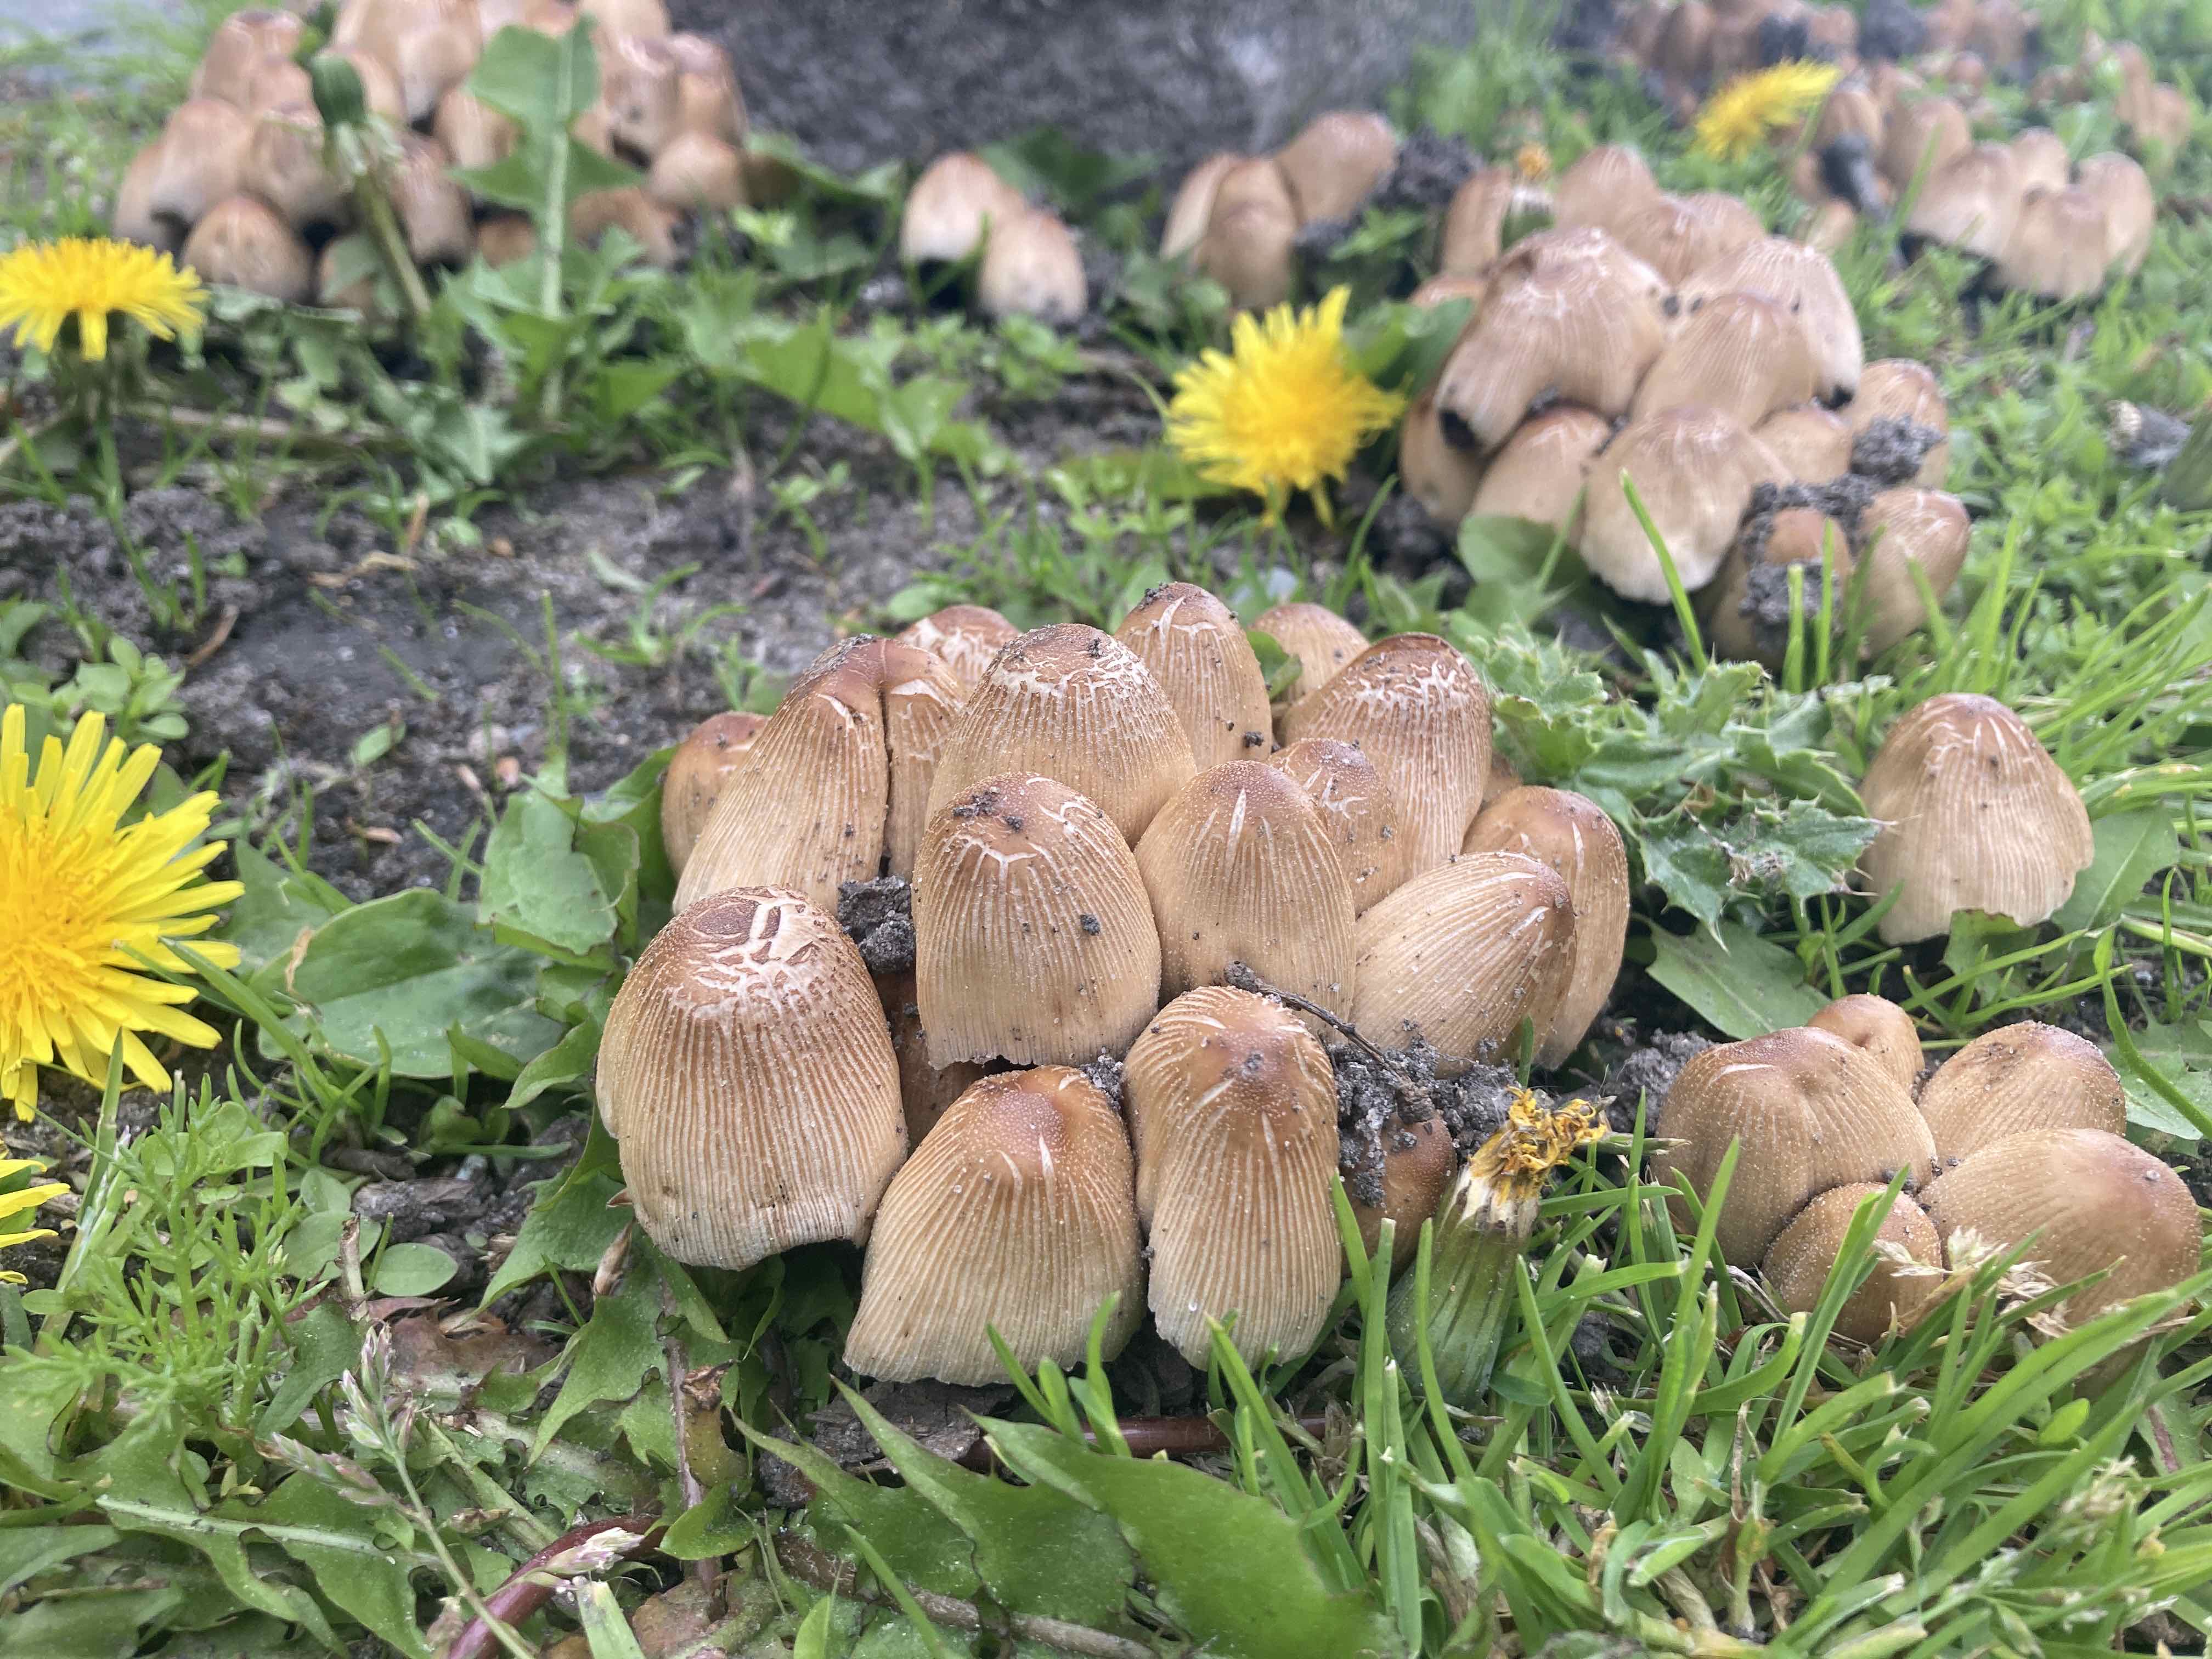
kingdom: Fungi
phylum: Basidiomycota
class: Agaricomycetes
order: Agaricales
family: Psathyrellaceae
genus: Coprinellus
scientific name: Coprinellus micaceus
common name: glimmer-blækhat
